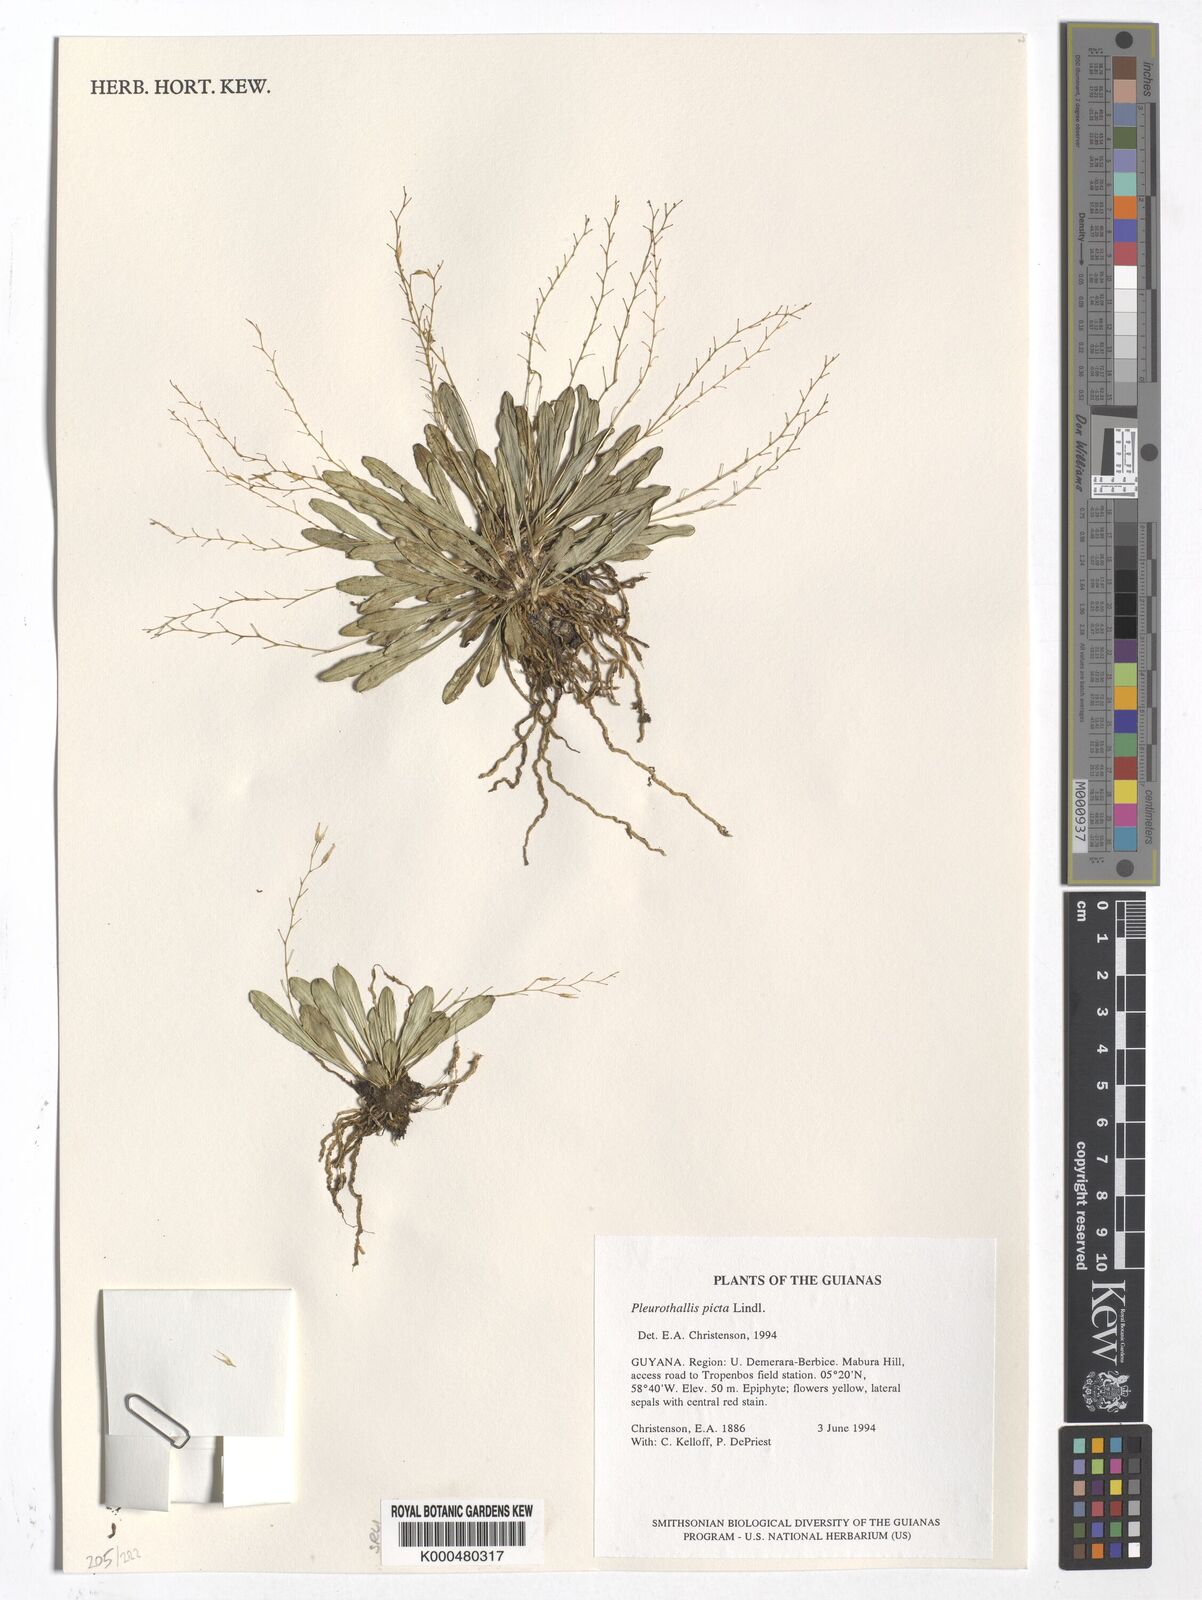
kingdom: Plantae
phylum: Tracheophyta
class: Liliopsida
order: Asparagales
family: Orchidaceae
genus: Specklinia
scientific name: Specklinia picta
